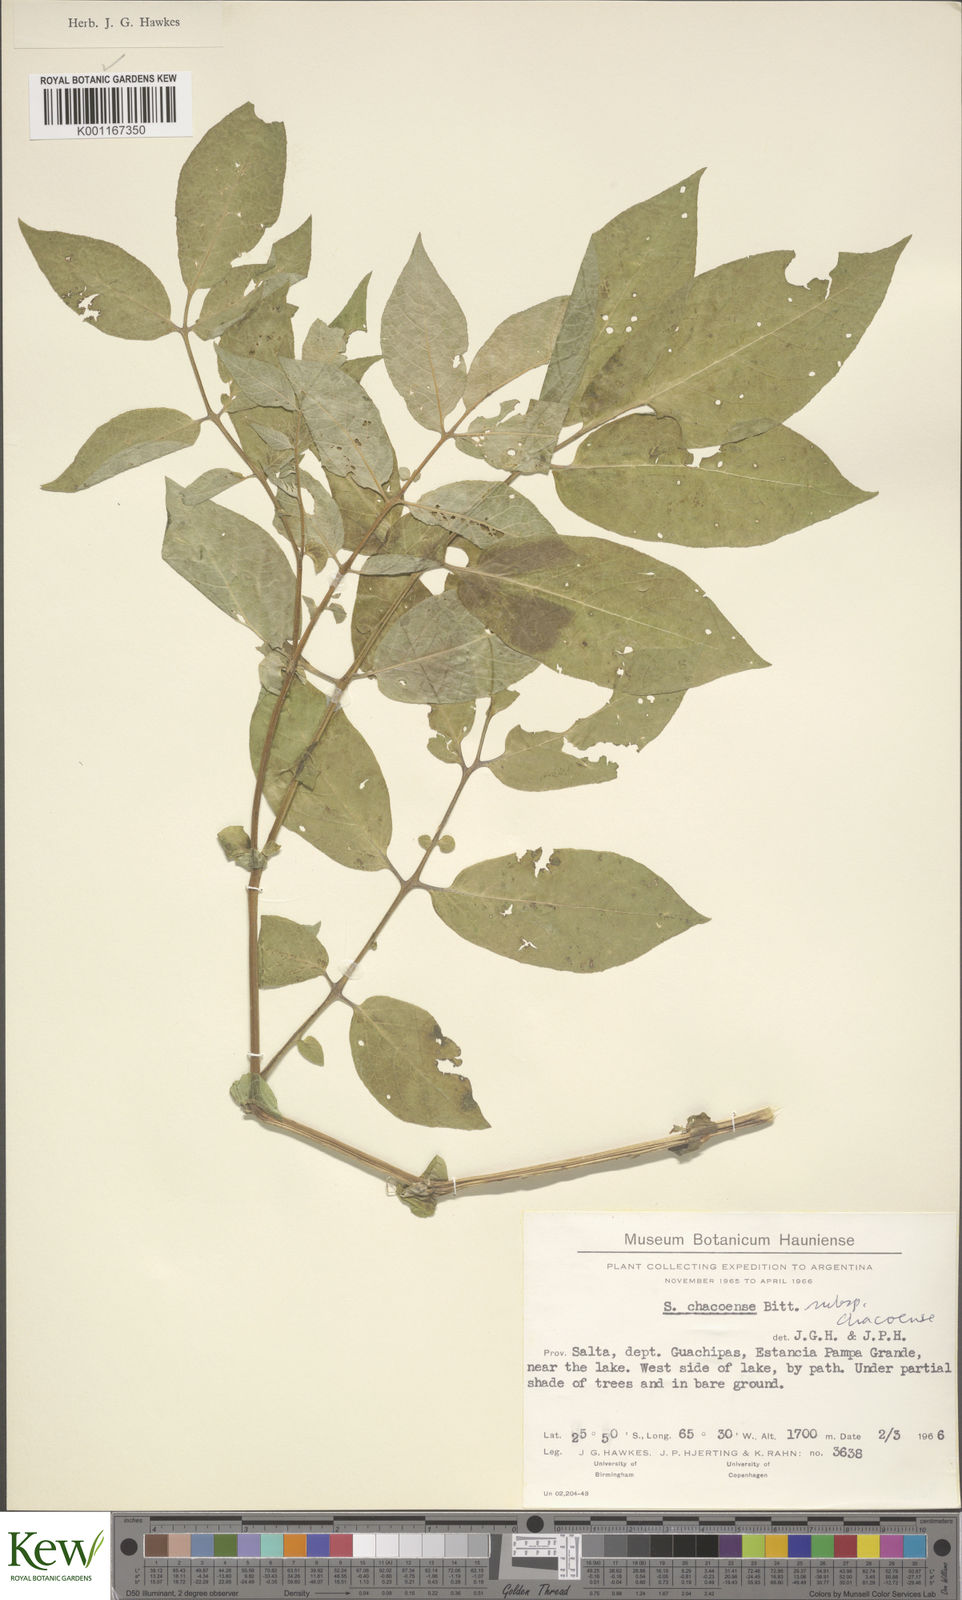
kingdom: Plantae
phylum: Tracheophyta
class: Magnoliopsida
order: Solanales
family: Solanaceae
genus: Solanum
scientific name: Solanum chacoense
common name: Chaco potato
